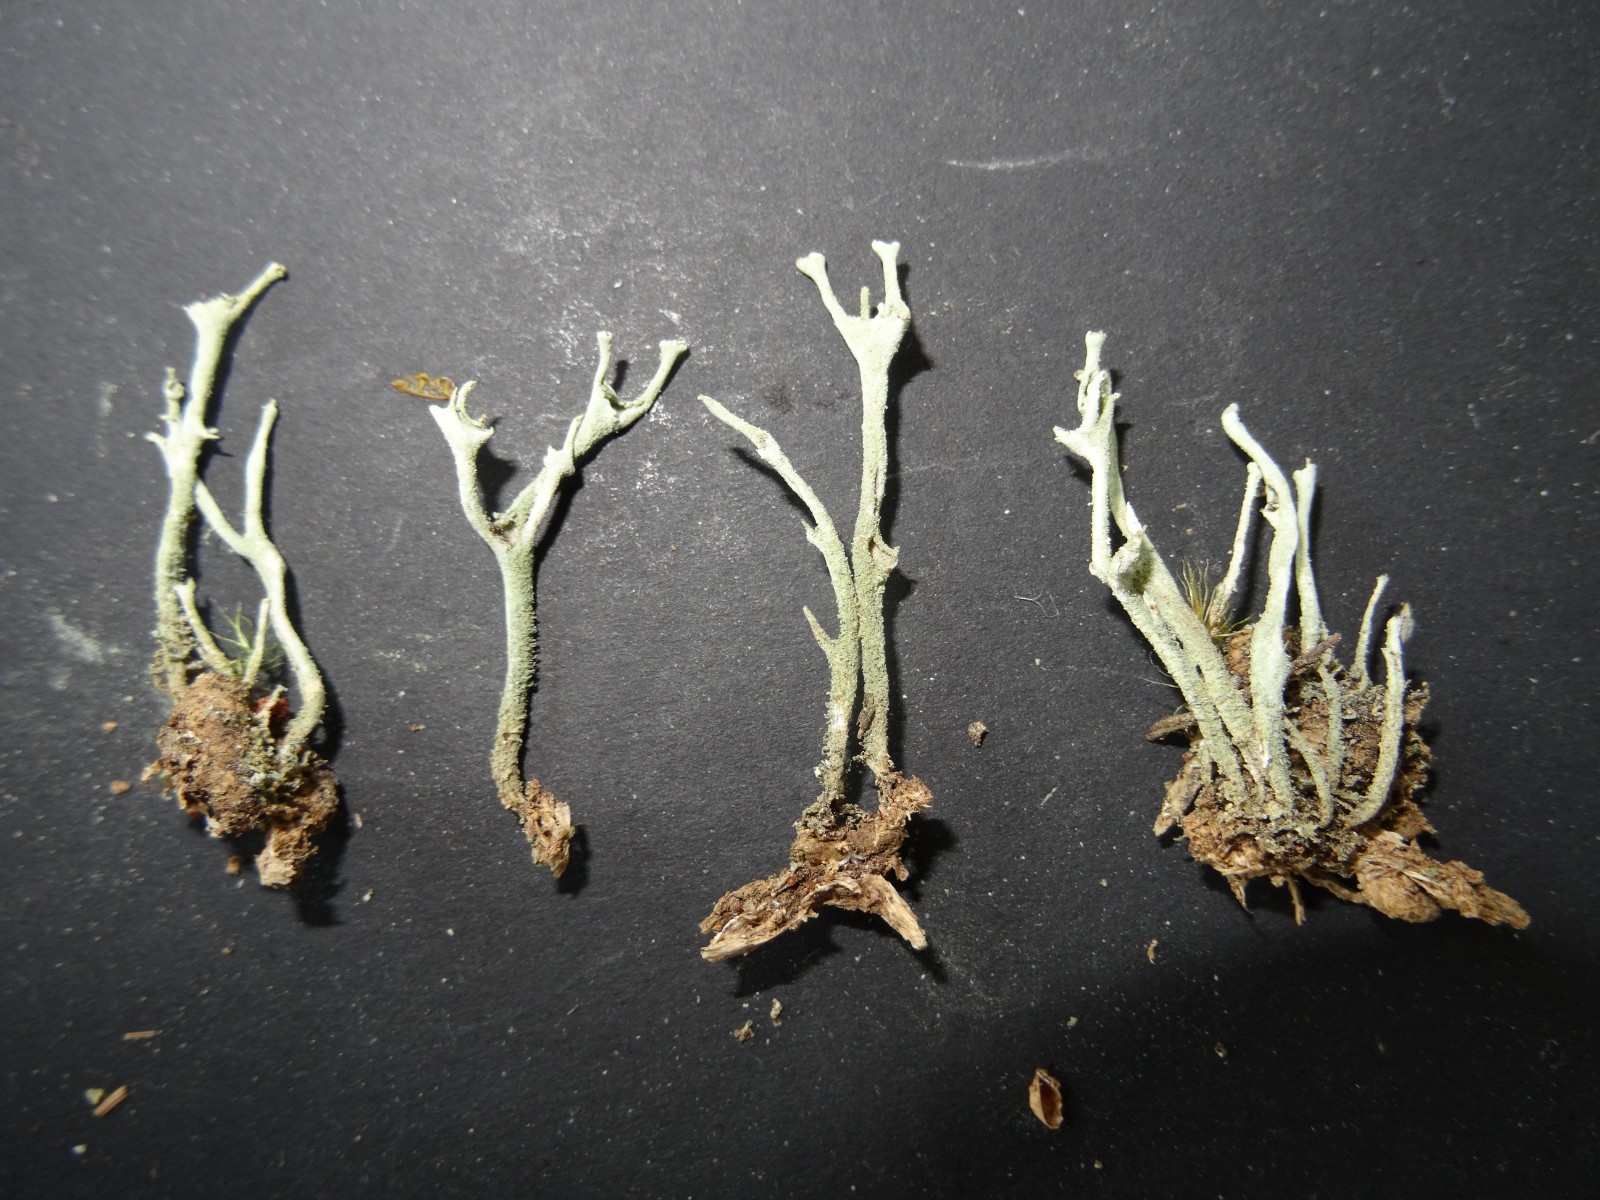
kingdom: Fungi
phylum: Ascomycota
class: Lecanoromycetes
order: Lecanorales
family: Cladoniaceae
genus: Cladonia
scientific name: Cladonia cenotea
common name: pudret bægerlav
